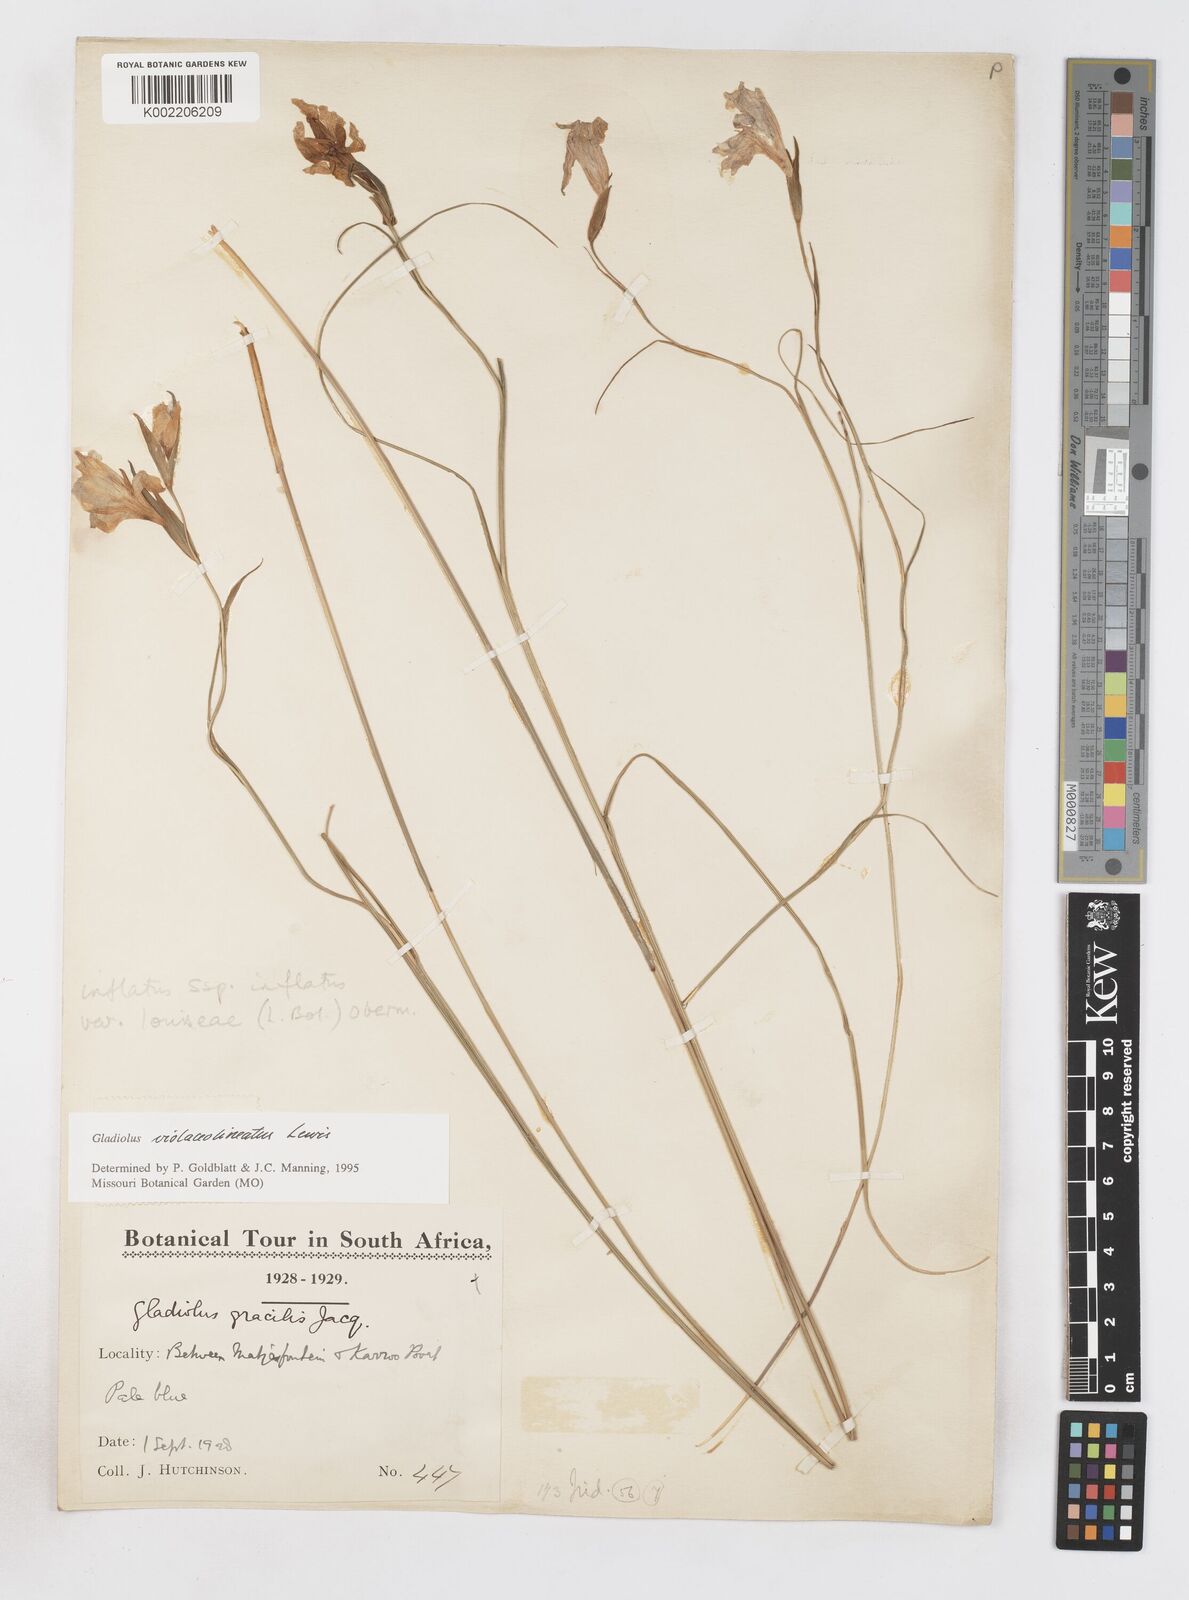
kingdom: Plantae
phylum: Tracheophyta
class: Liliopsida
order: Asparagales
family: Iridaceae
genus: Gladiolus
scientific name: Gladiolus violaceolineatus
